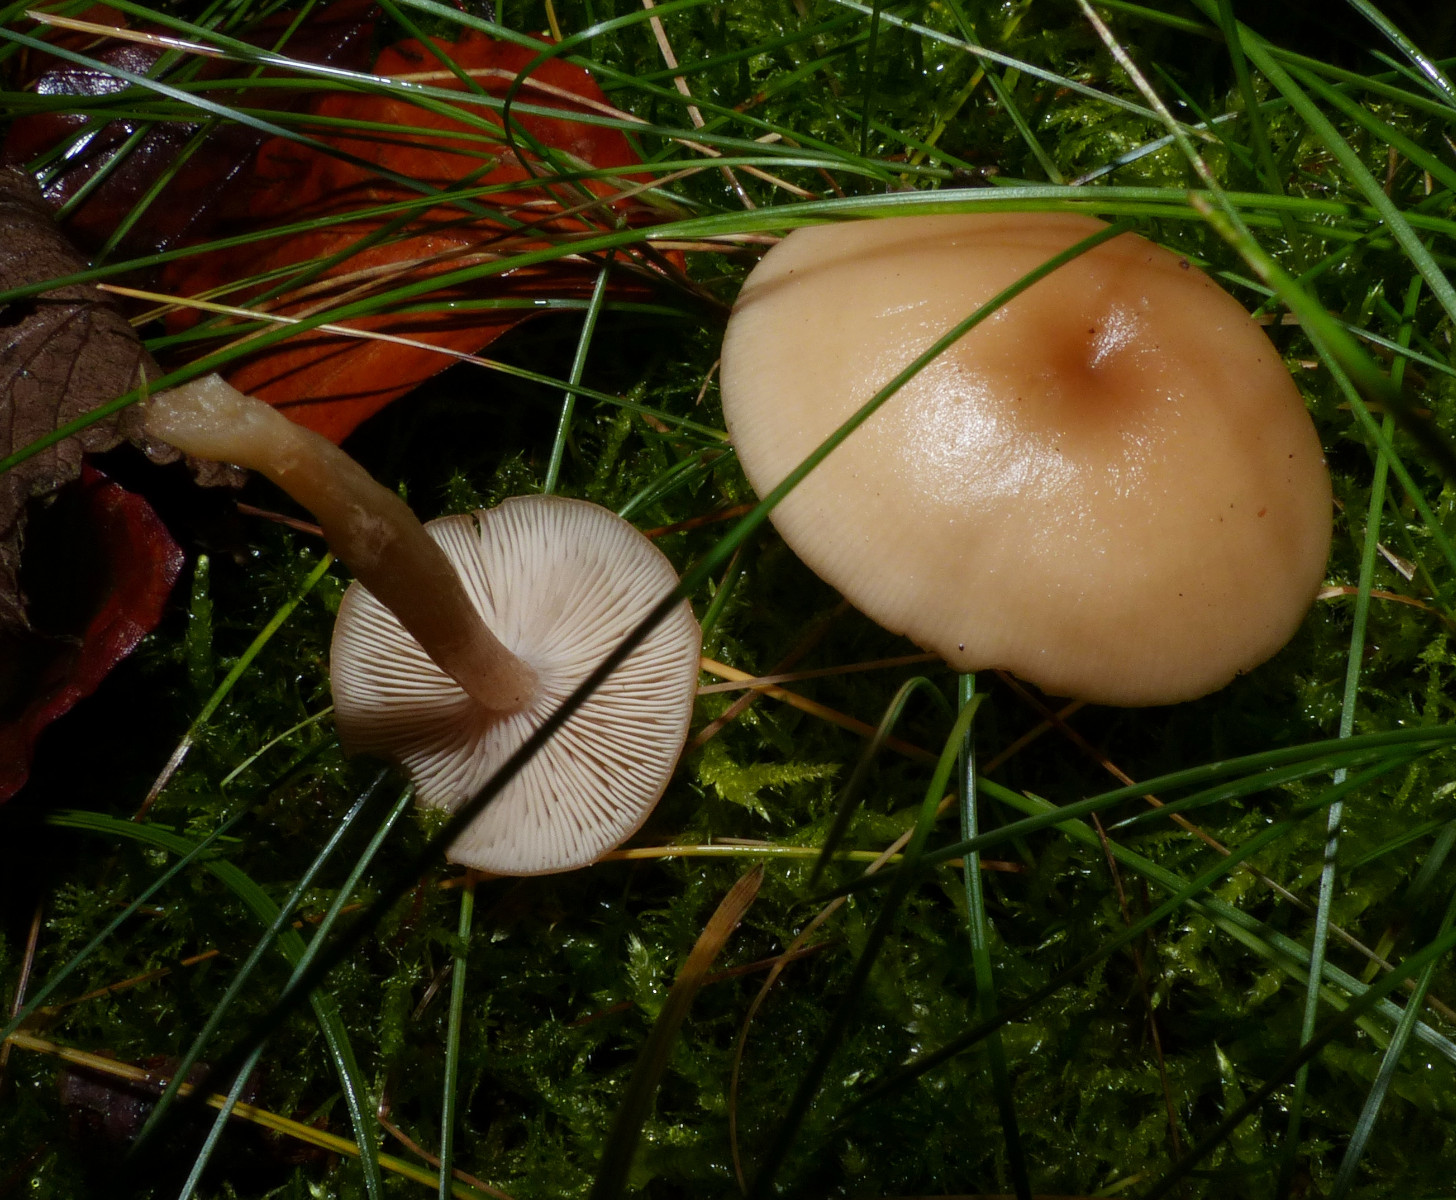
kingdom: Fungi
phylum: Basidiomycota
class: Agaricomycetes
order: Agaricales
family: Tricholomataceae
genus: Clitocybe
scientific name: Clitocybe fragrans
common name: vellugtende tragthat
